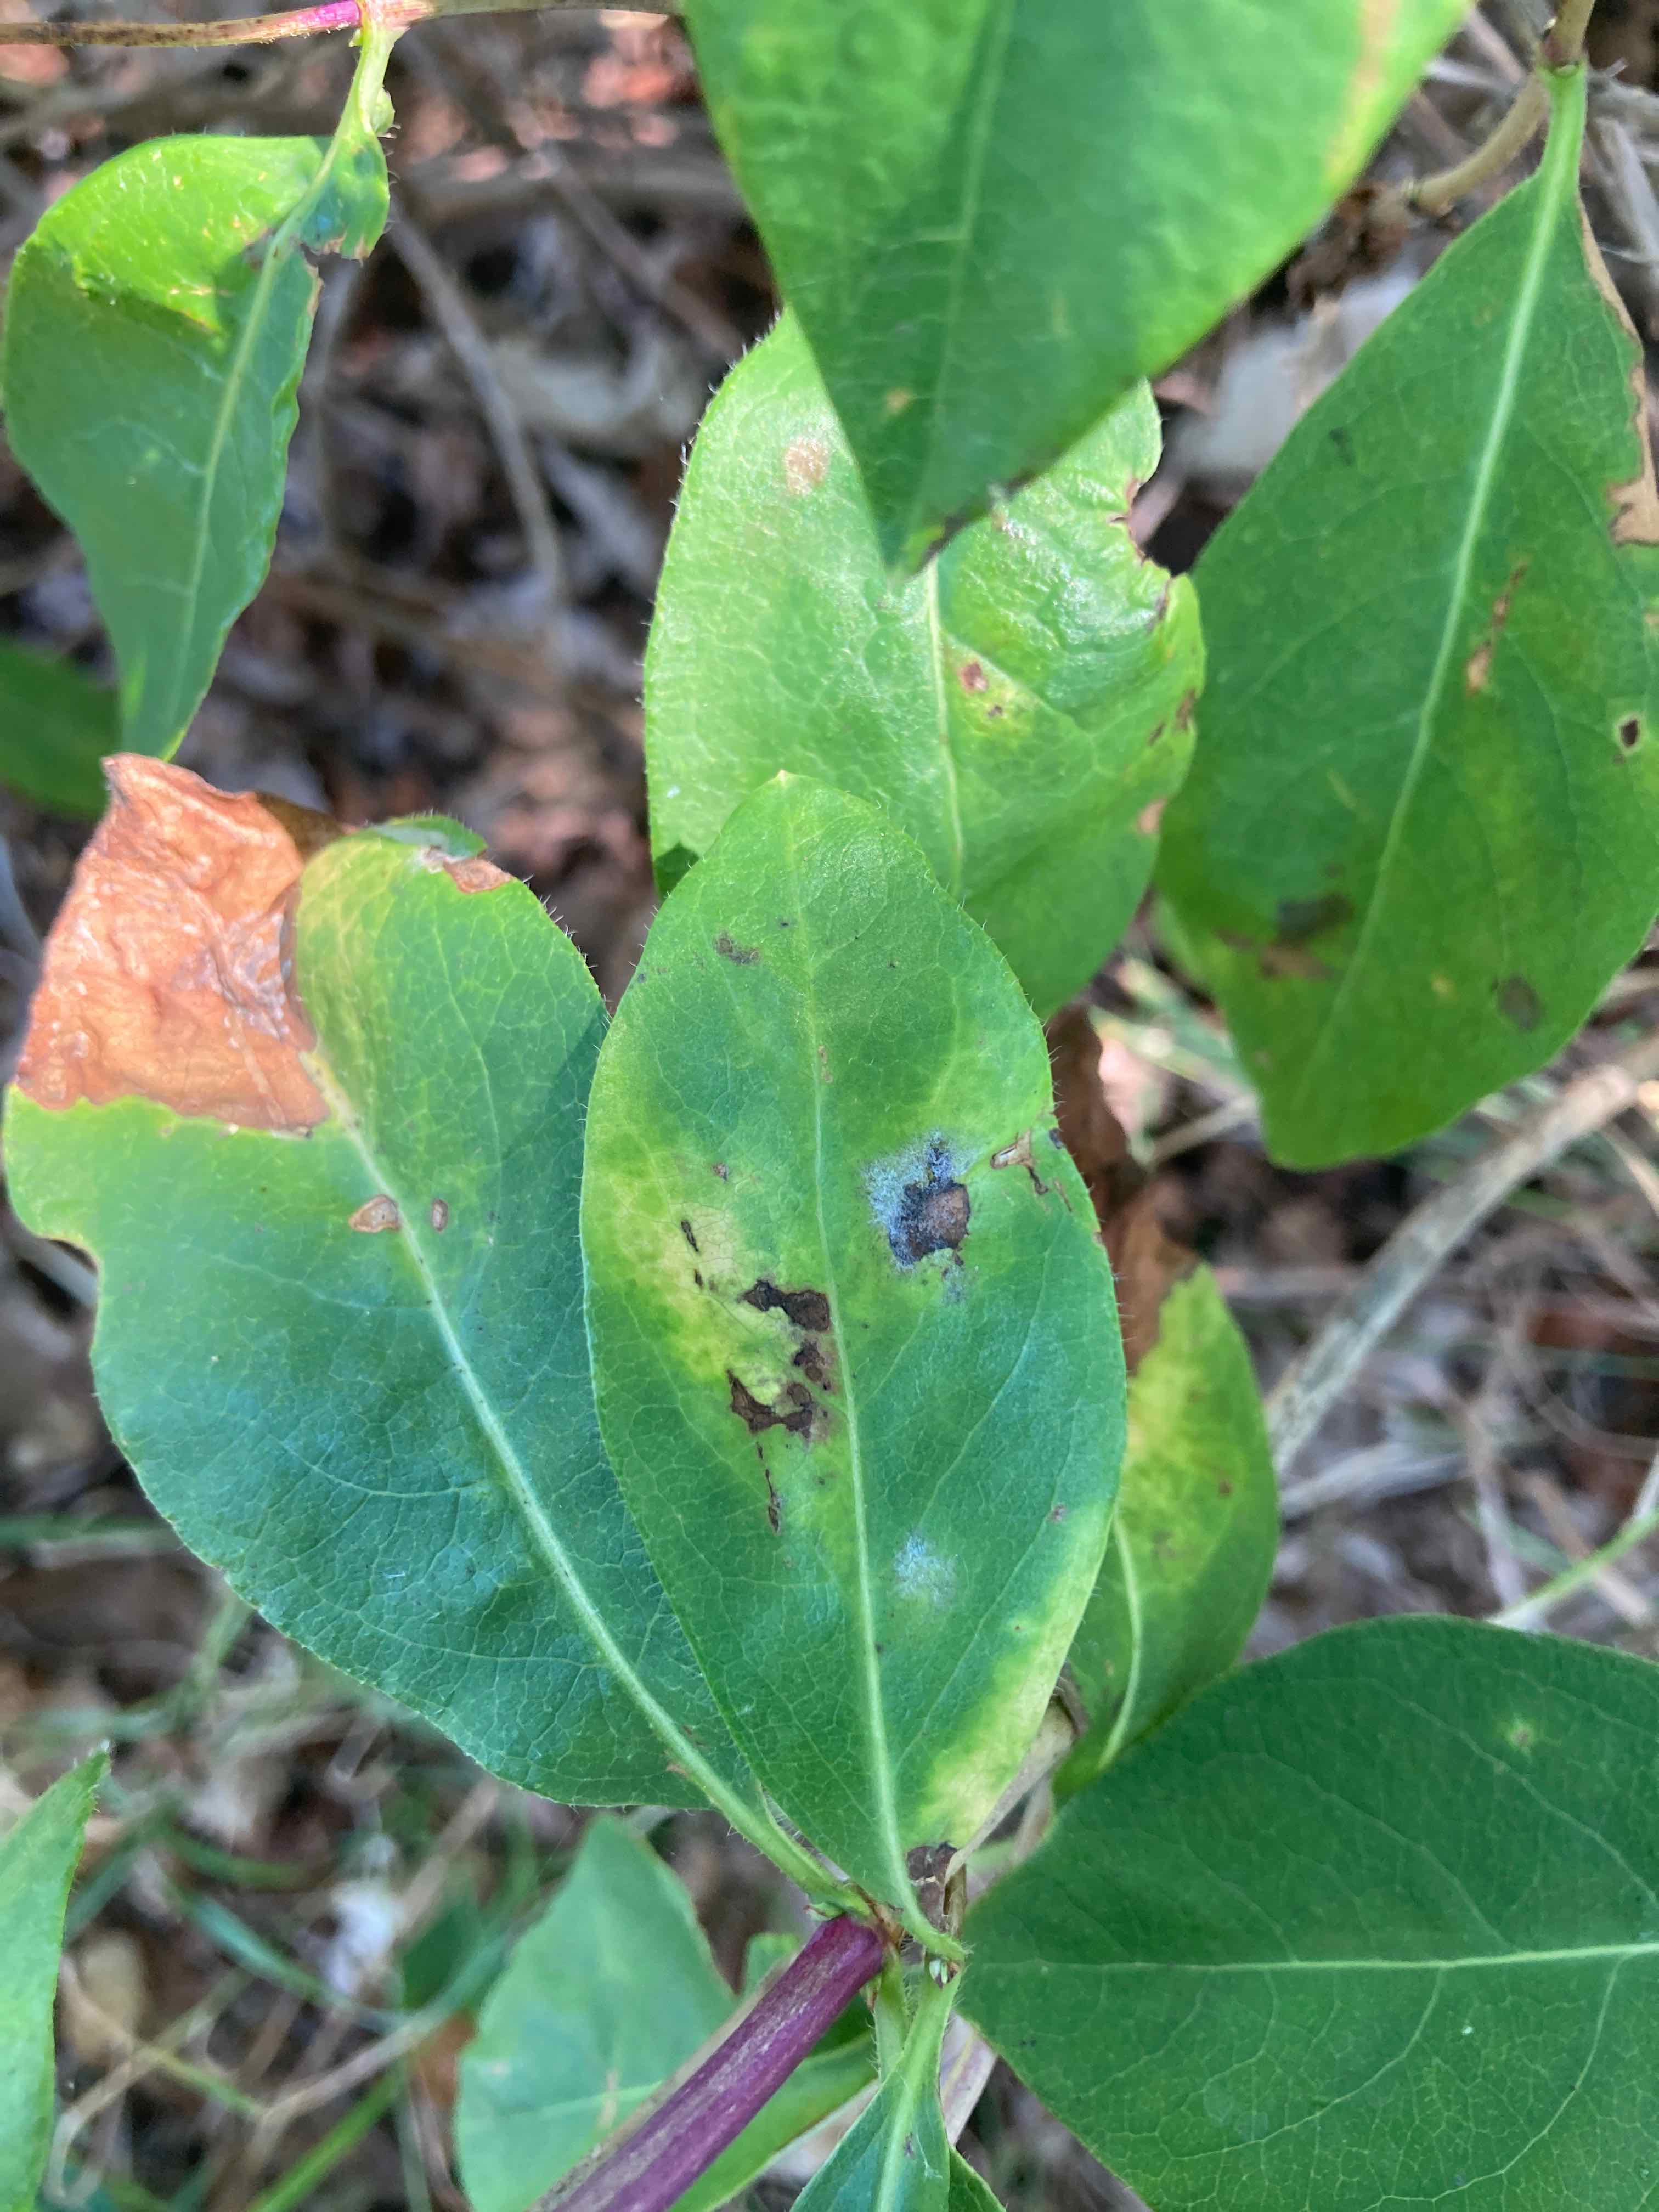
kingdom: Fungi
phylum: Ascomycota
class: Leotiomycetes
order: Helotiales
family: Erysiphaceae
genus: Erysiphe
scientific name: Erysiphe lonicerae
